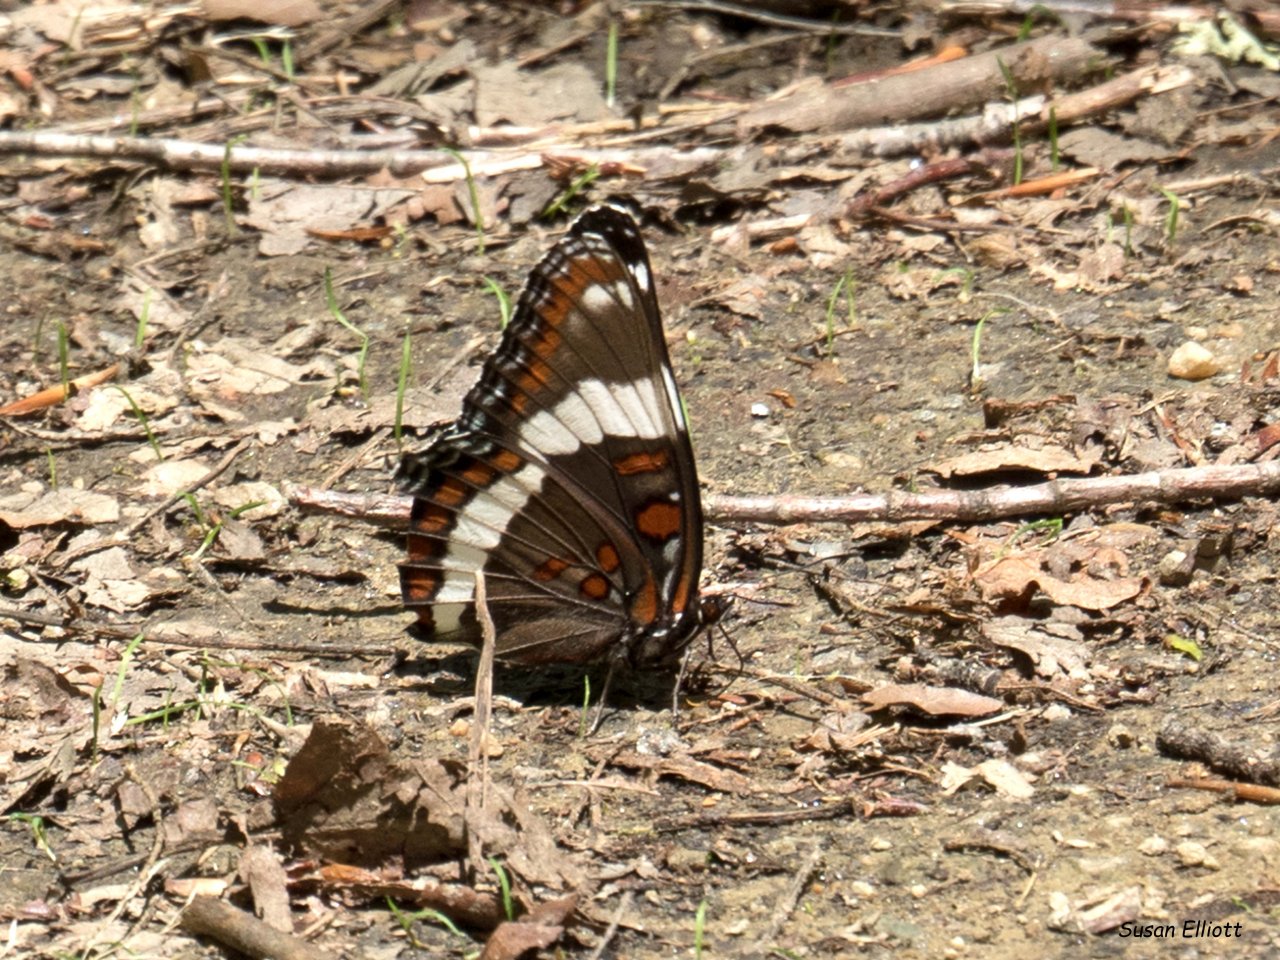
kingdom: Animalia
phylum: Arthropoda
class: Insecta
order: Lepidoptera
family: Nymphalidae
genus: Limenitis
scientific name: Limenitis arthemis
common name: Red-spotted Admiral
